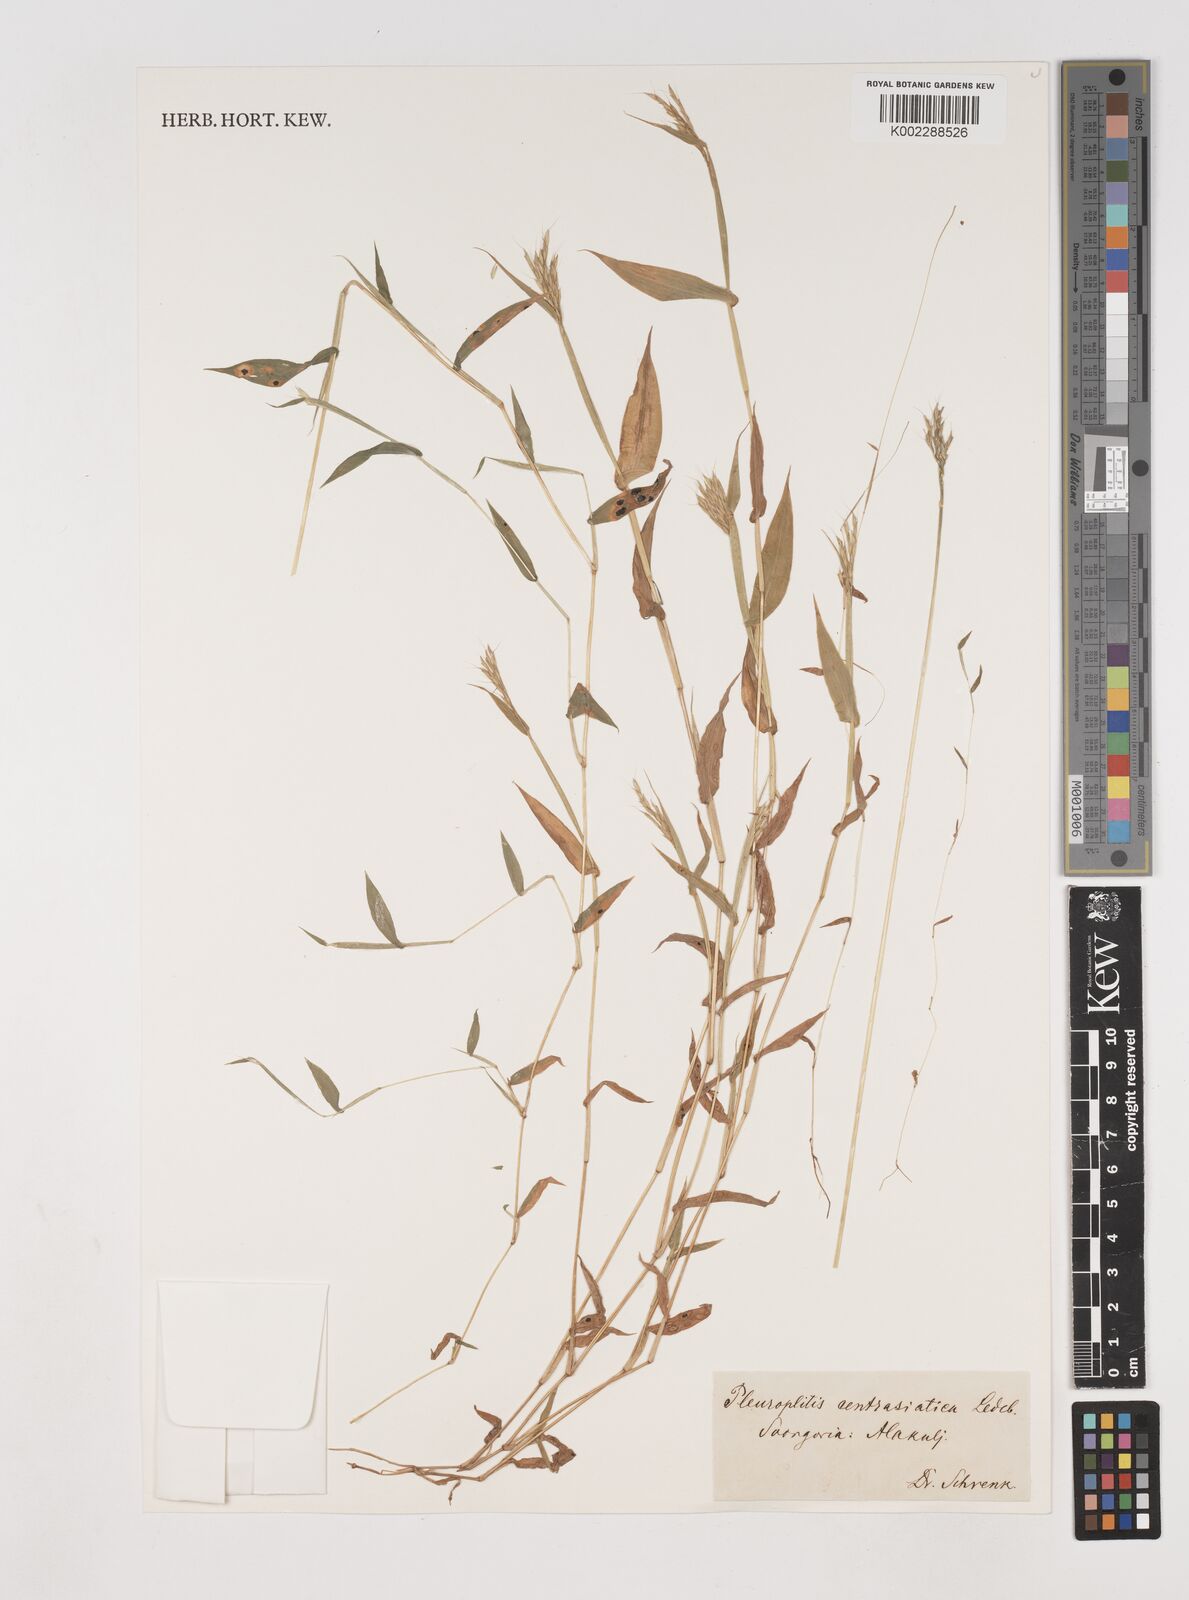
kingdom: Plantae
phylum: Tracheophyta
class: Liliopsida
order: Poales
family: Poaceae
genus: Arthraxon
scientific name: Arthraxon hispidus
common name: Small carpgrass
